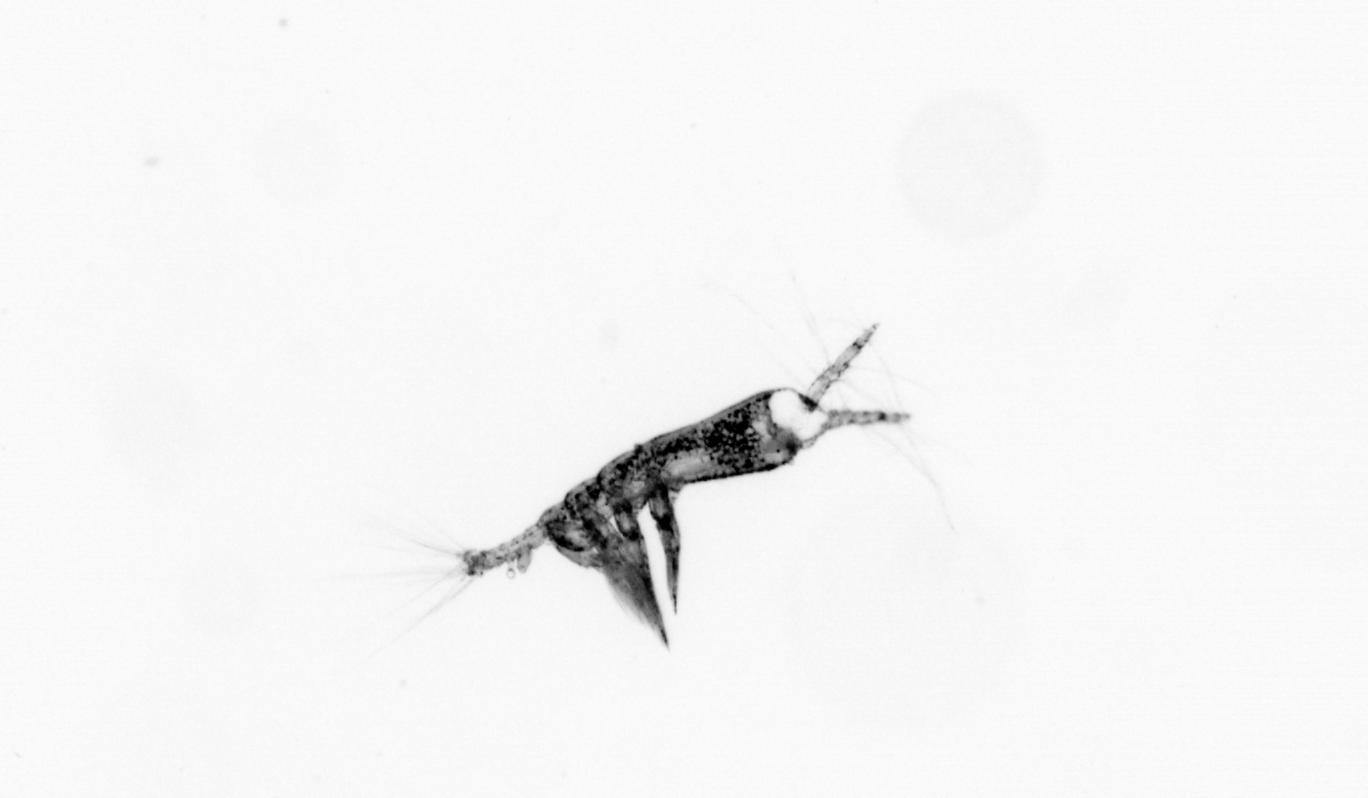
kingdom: Animalia
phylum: Arthropoda
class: Copepoda
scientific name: Copepoda
